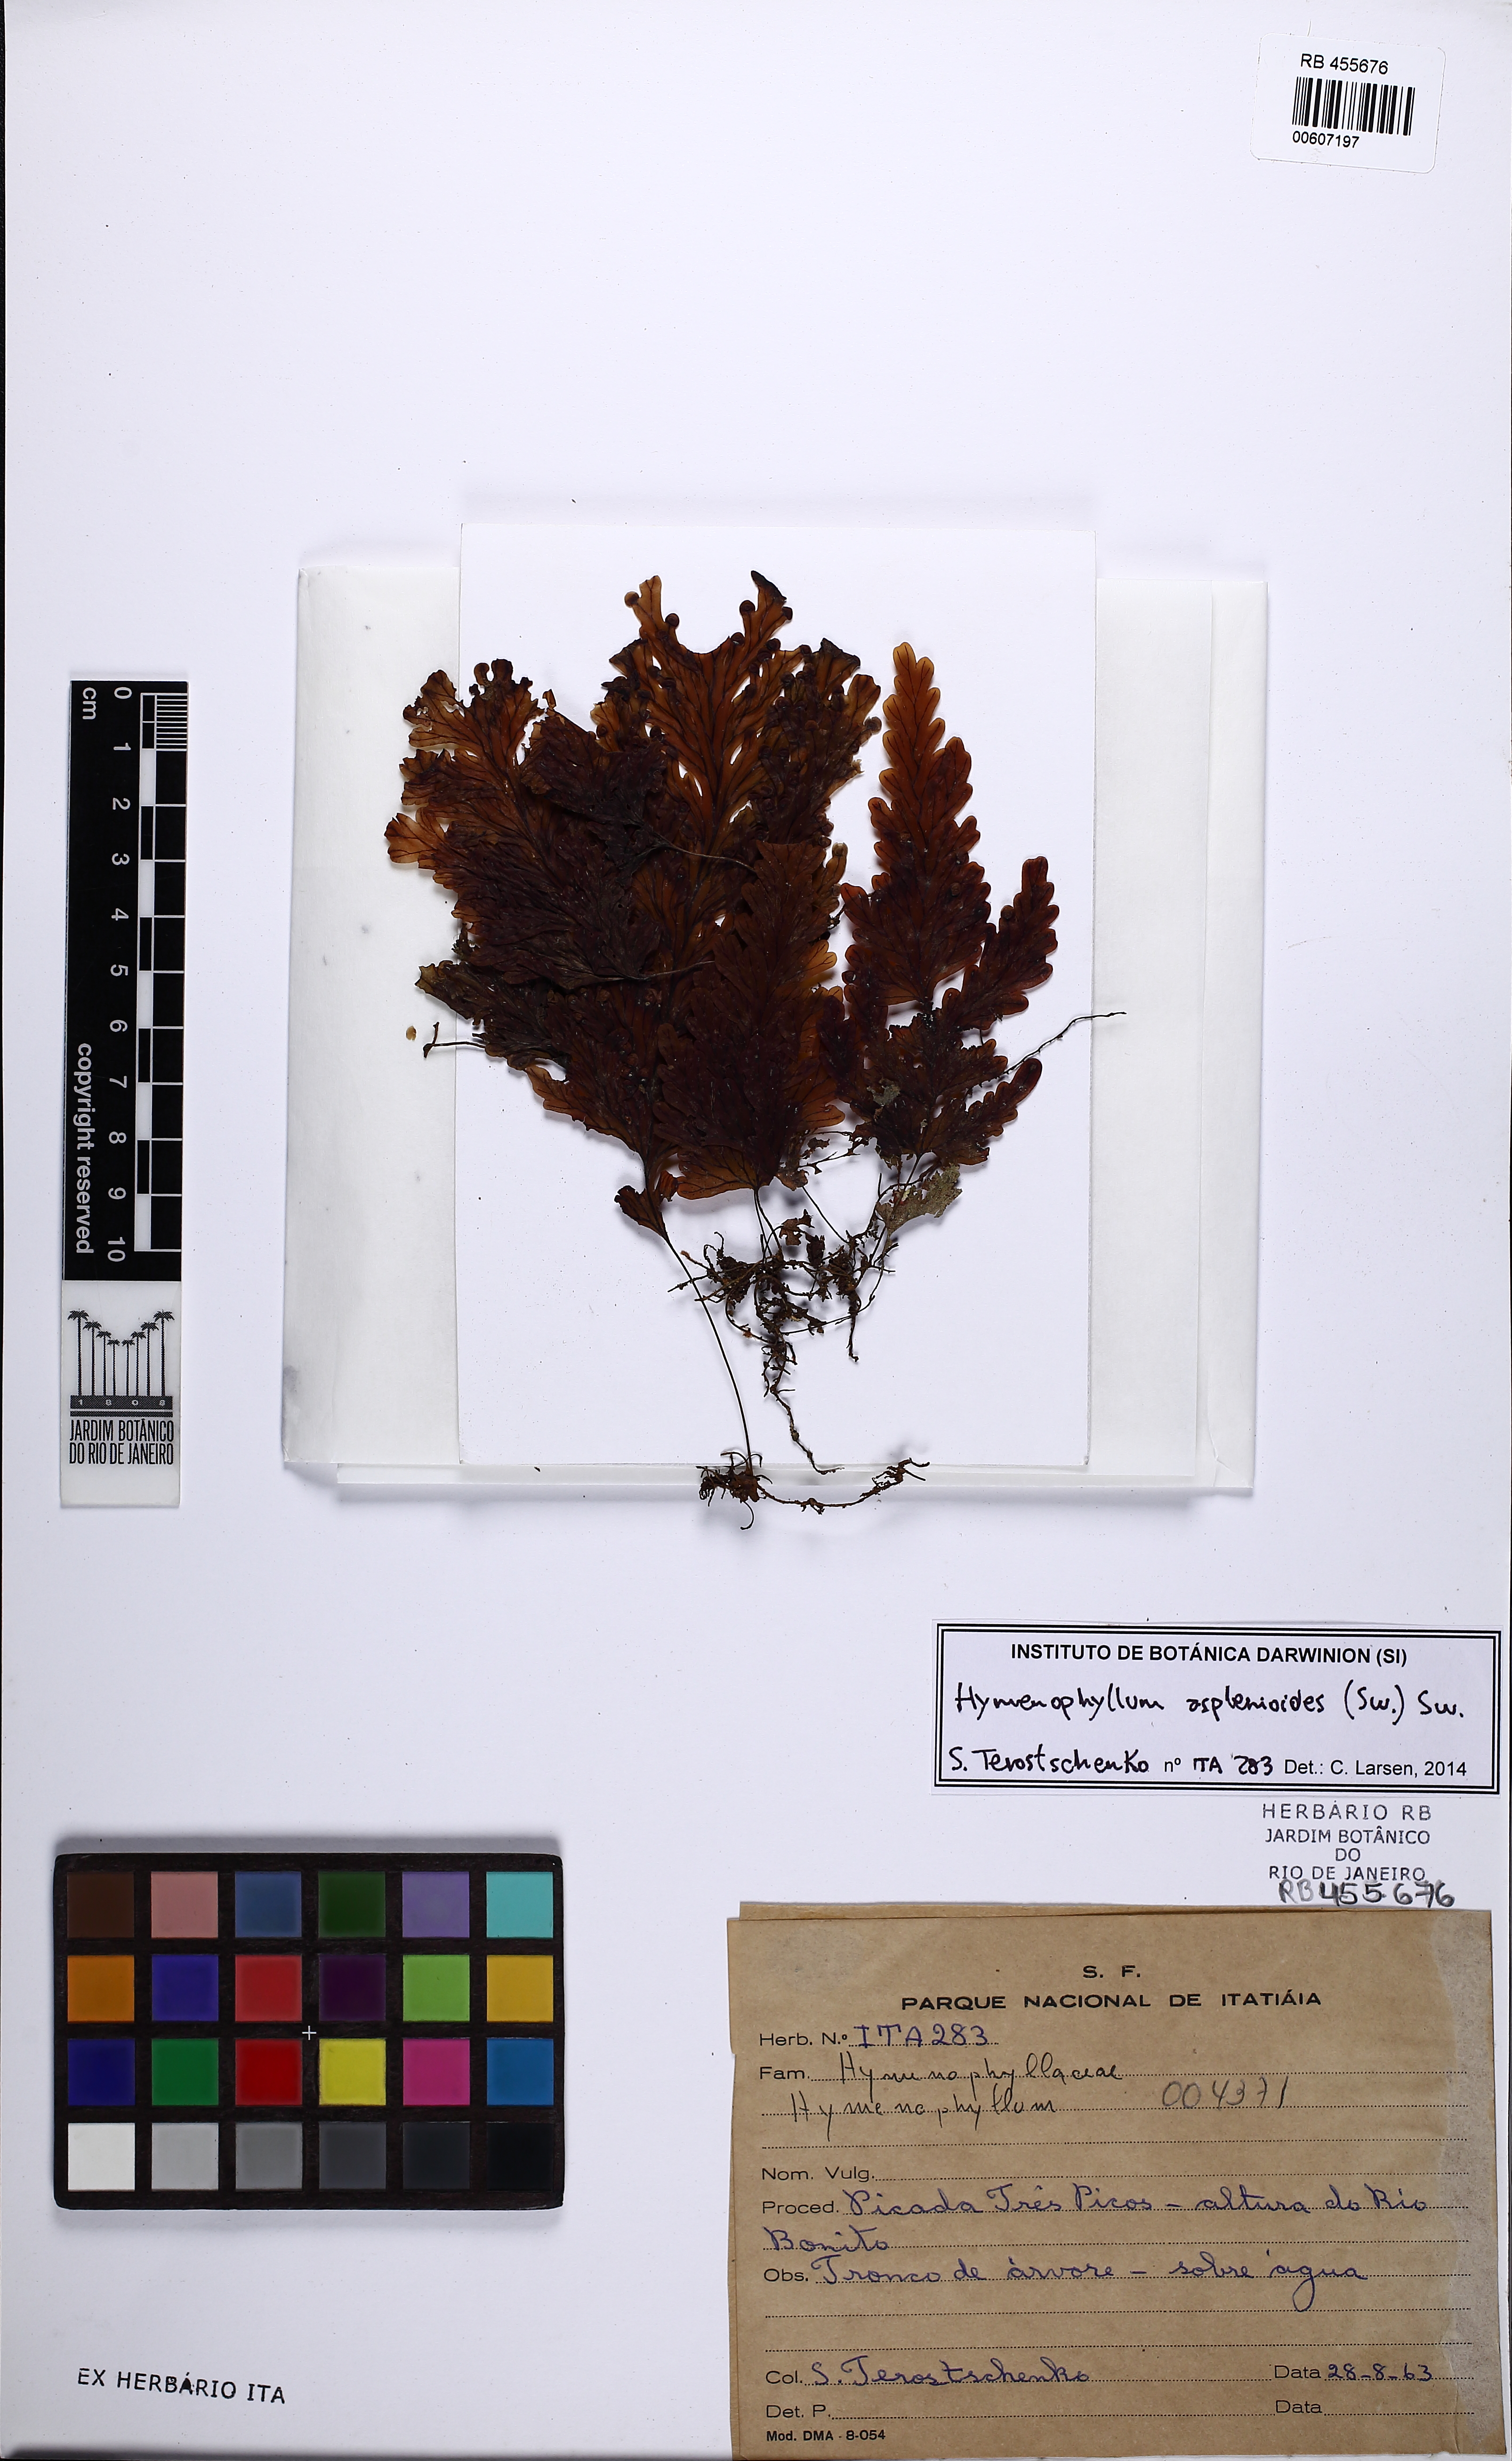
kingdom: Plantae
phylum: Tracheophyta
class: Polypodiopsida
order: Hymenophyllales
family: Hymenophyllaceae
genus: Hymenophyllum
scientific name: Hymenophyllum asplenioides
